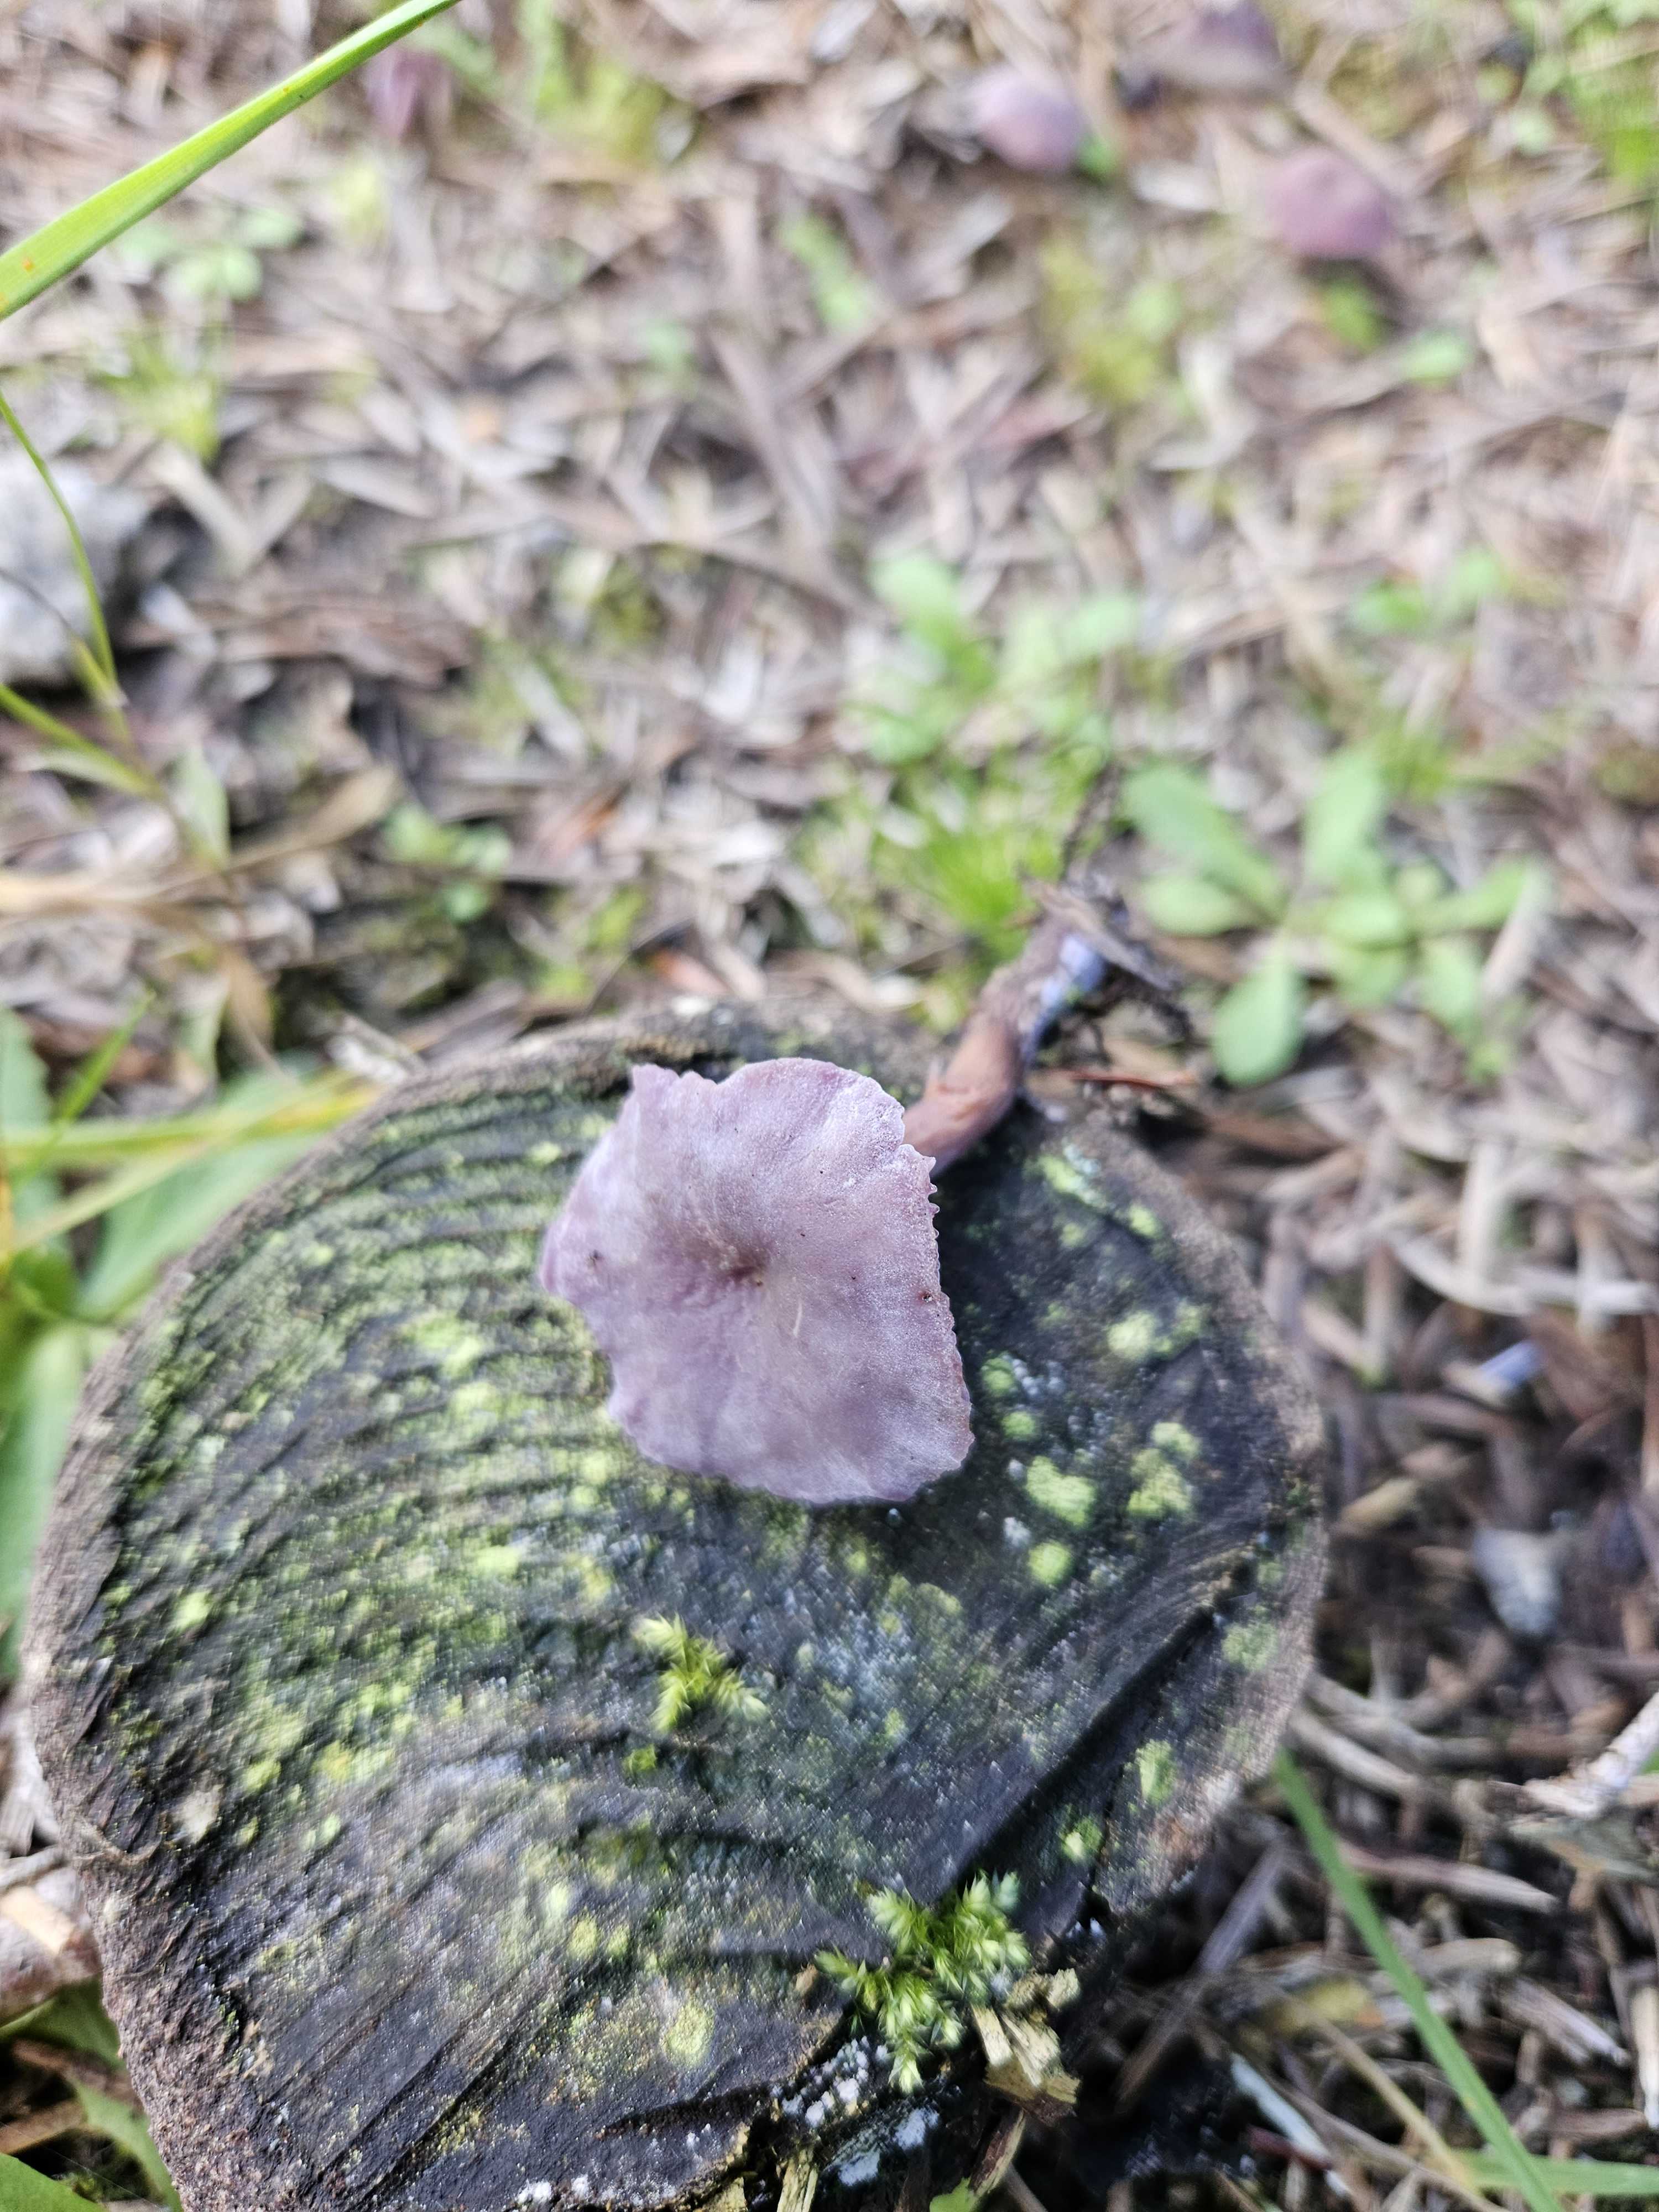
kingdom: Fungi
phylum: Basidiomycota
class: Agaricomycetes
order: Agaricales
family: Hydnangiaceae
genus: Laccaria
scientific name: Laccaria amethystina
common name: violet ametysthat
